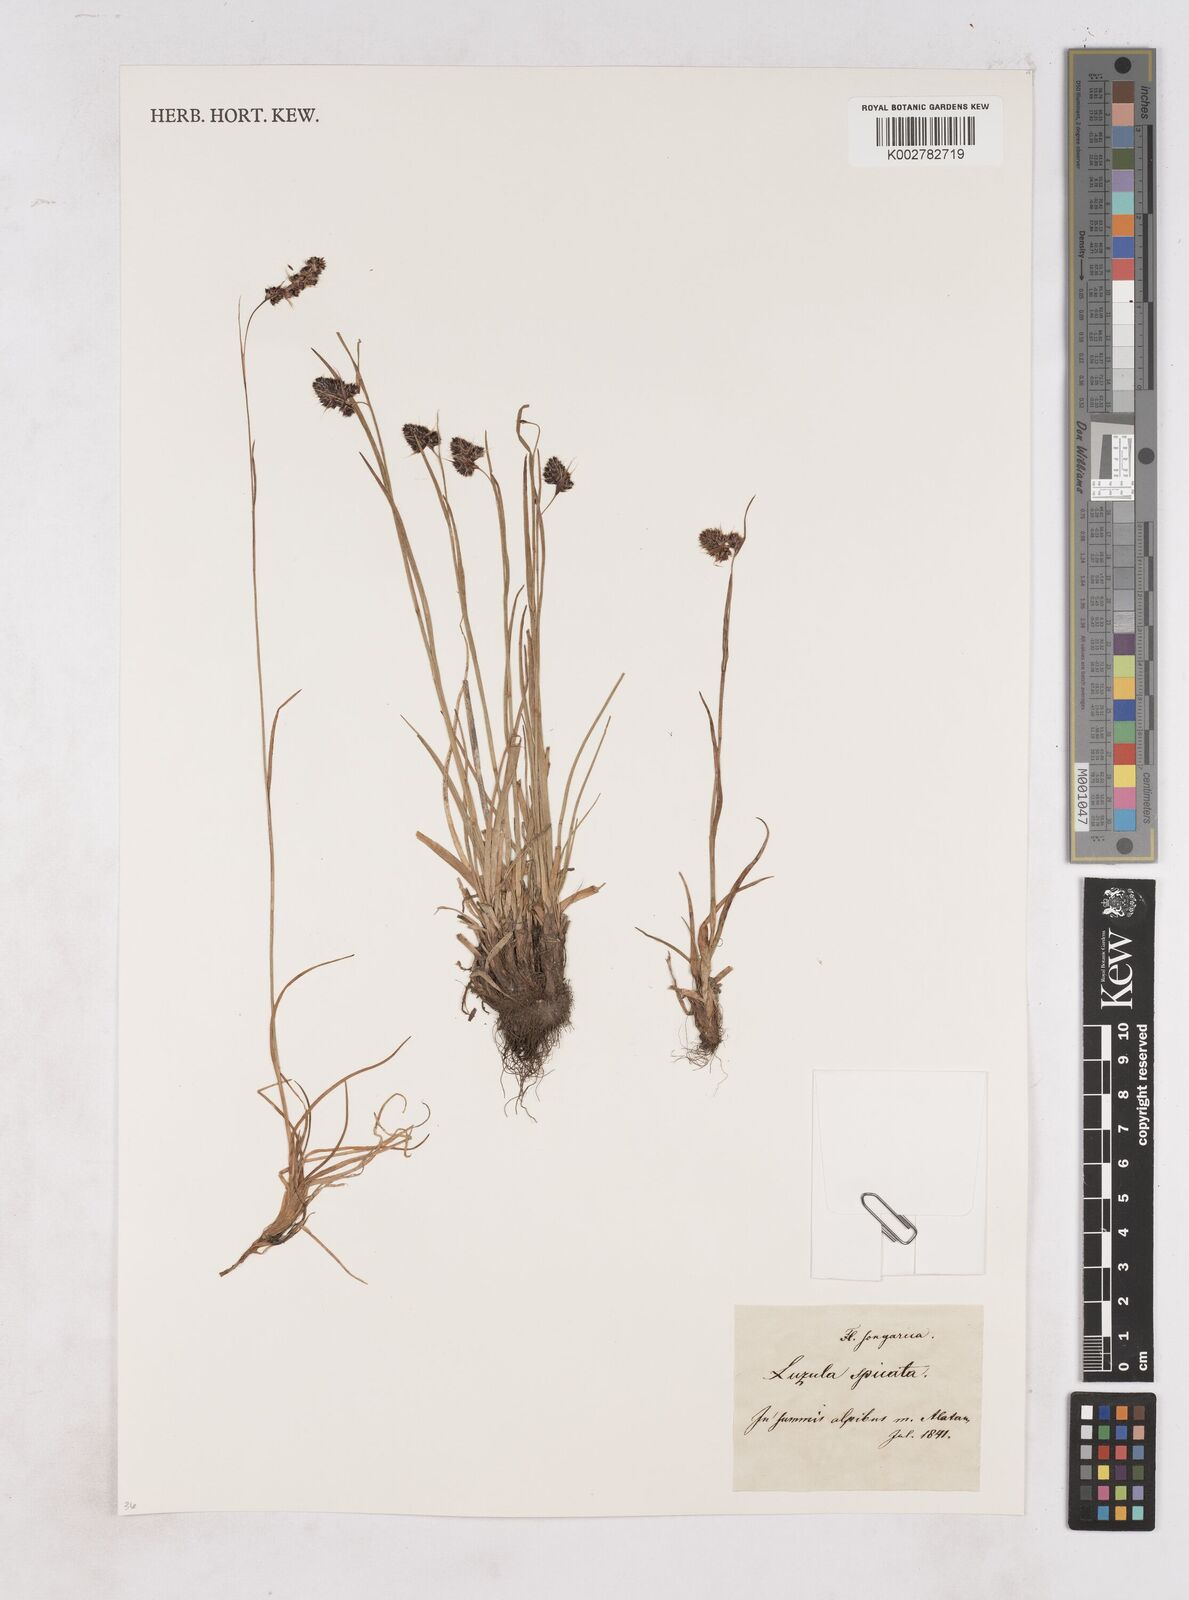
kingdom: Plantae
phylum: Tracheophyta
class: Liliopsida
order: Poales
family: Juncaceae
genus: Luzula
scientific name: Luzula spicata
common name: Spiked wood-rush
